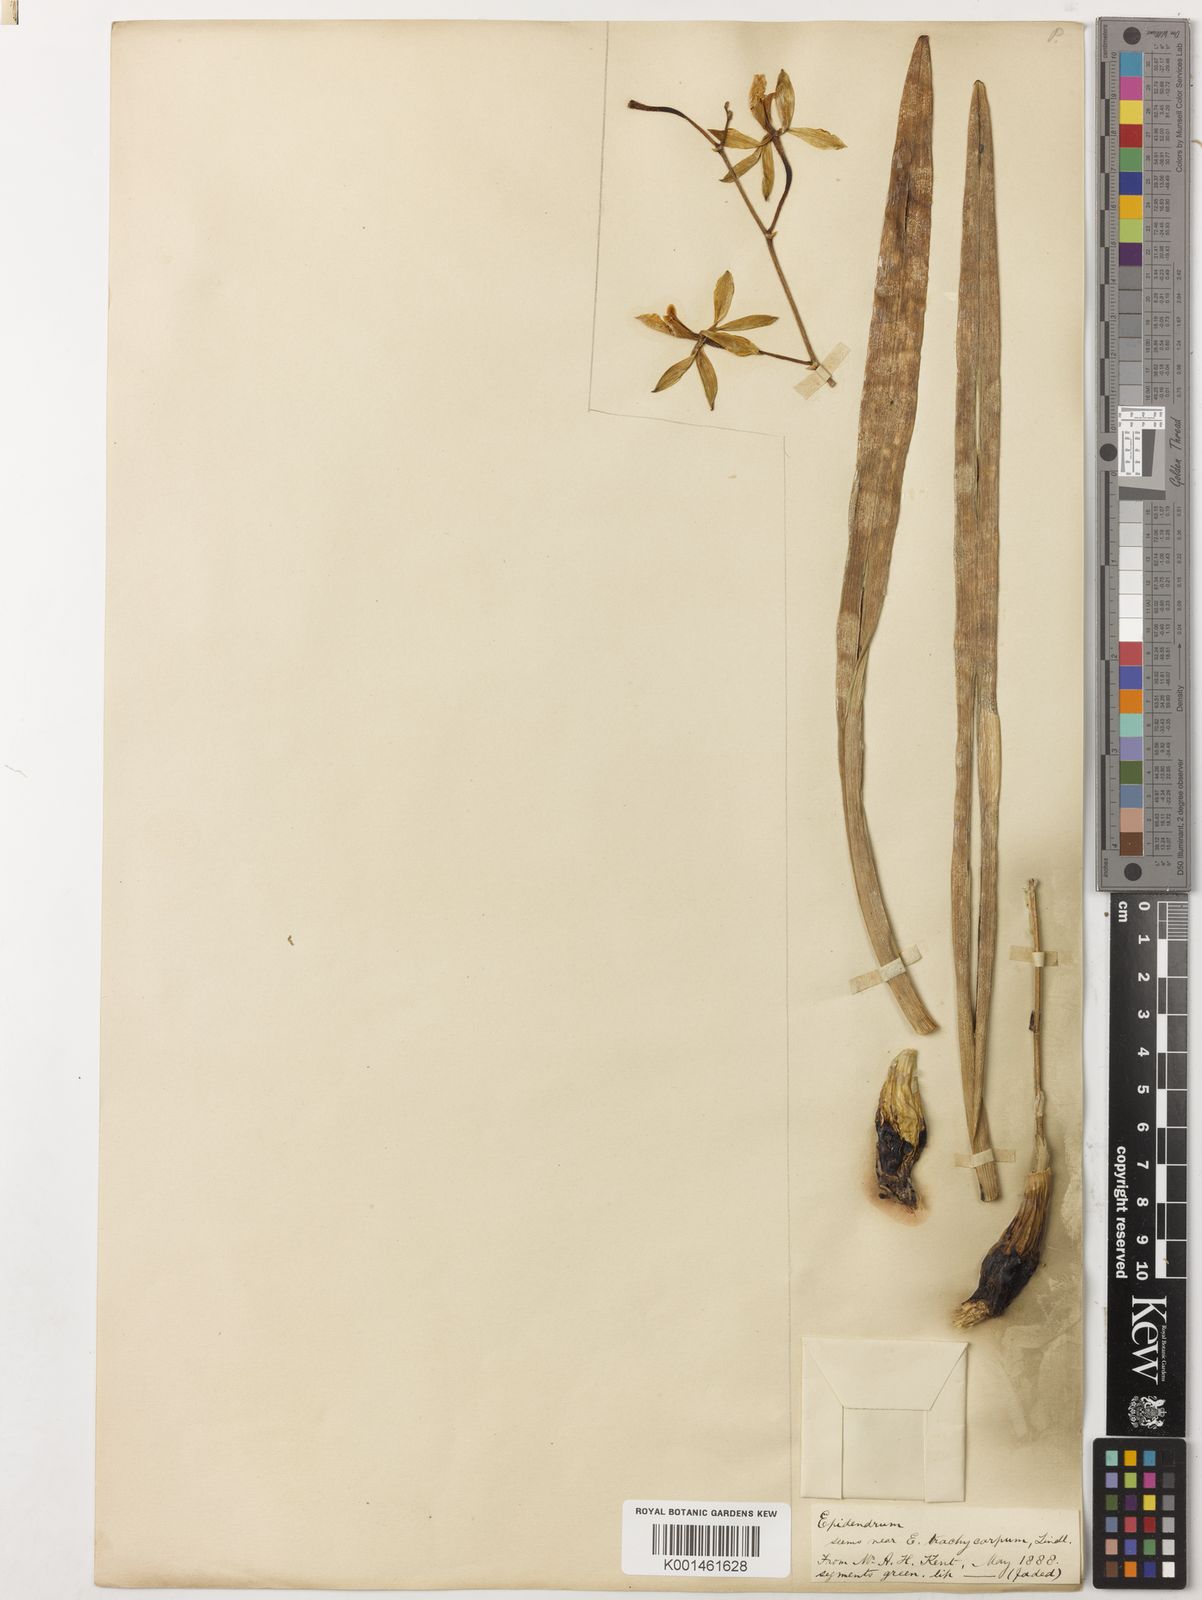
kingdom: Plantae
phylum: Tracheophyta
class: Liliopsida
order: Asparagales
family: Orchidaceae
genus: Encyclia
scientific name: Encyclia
